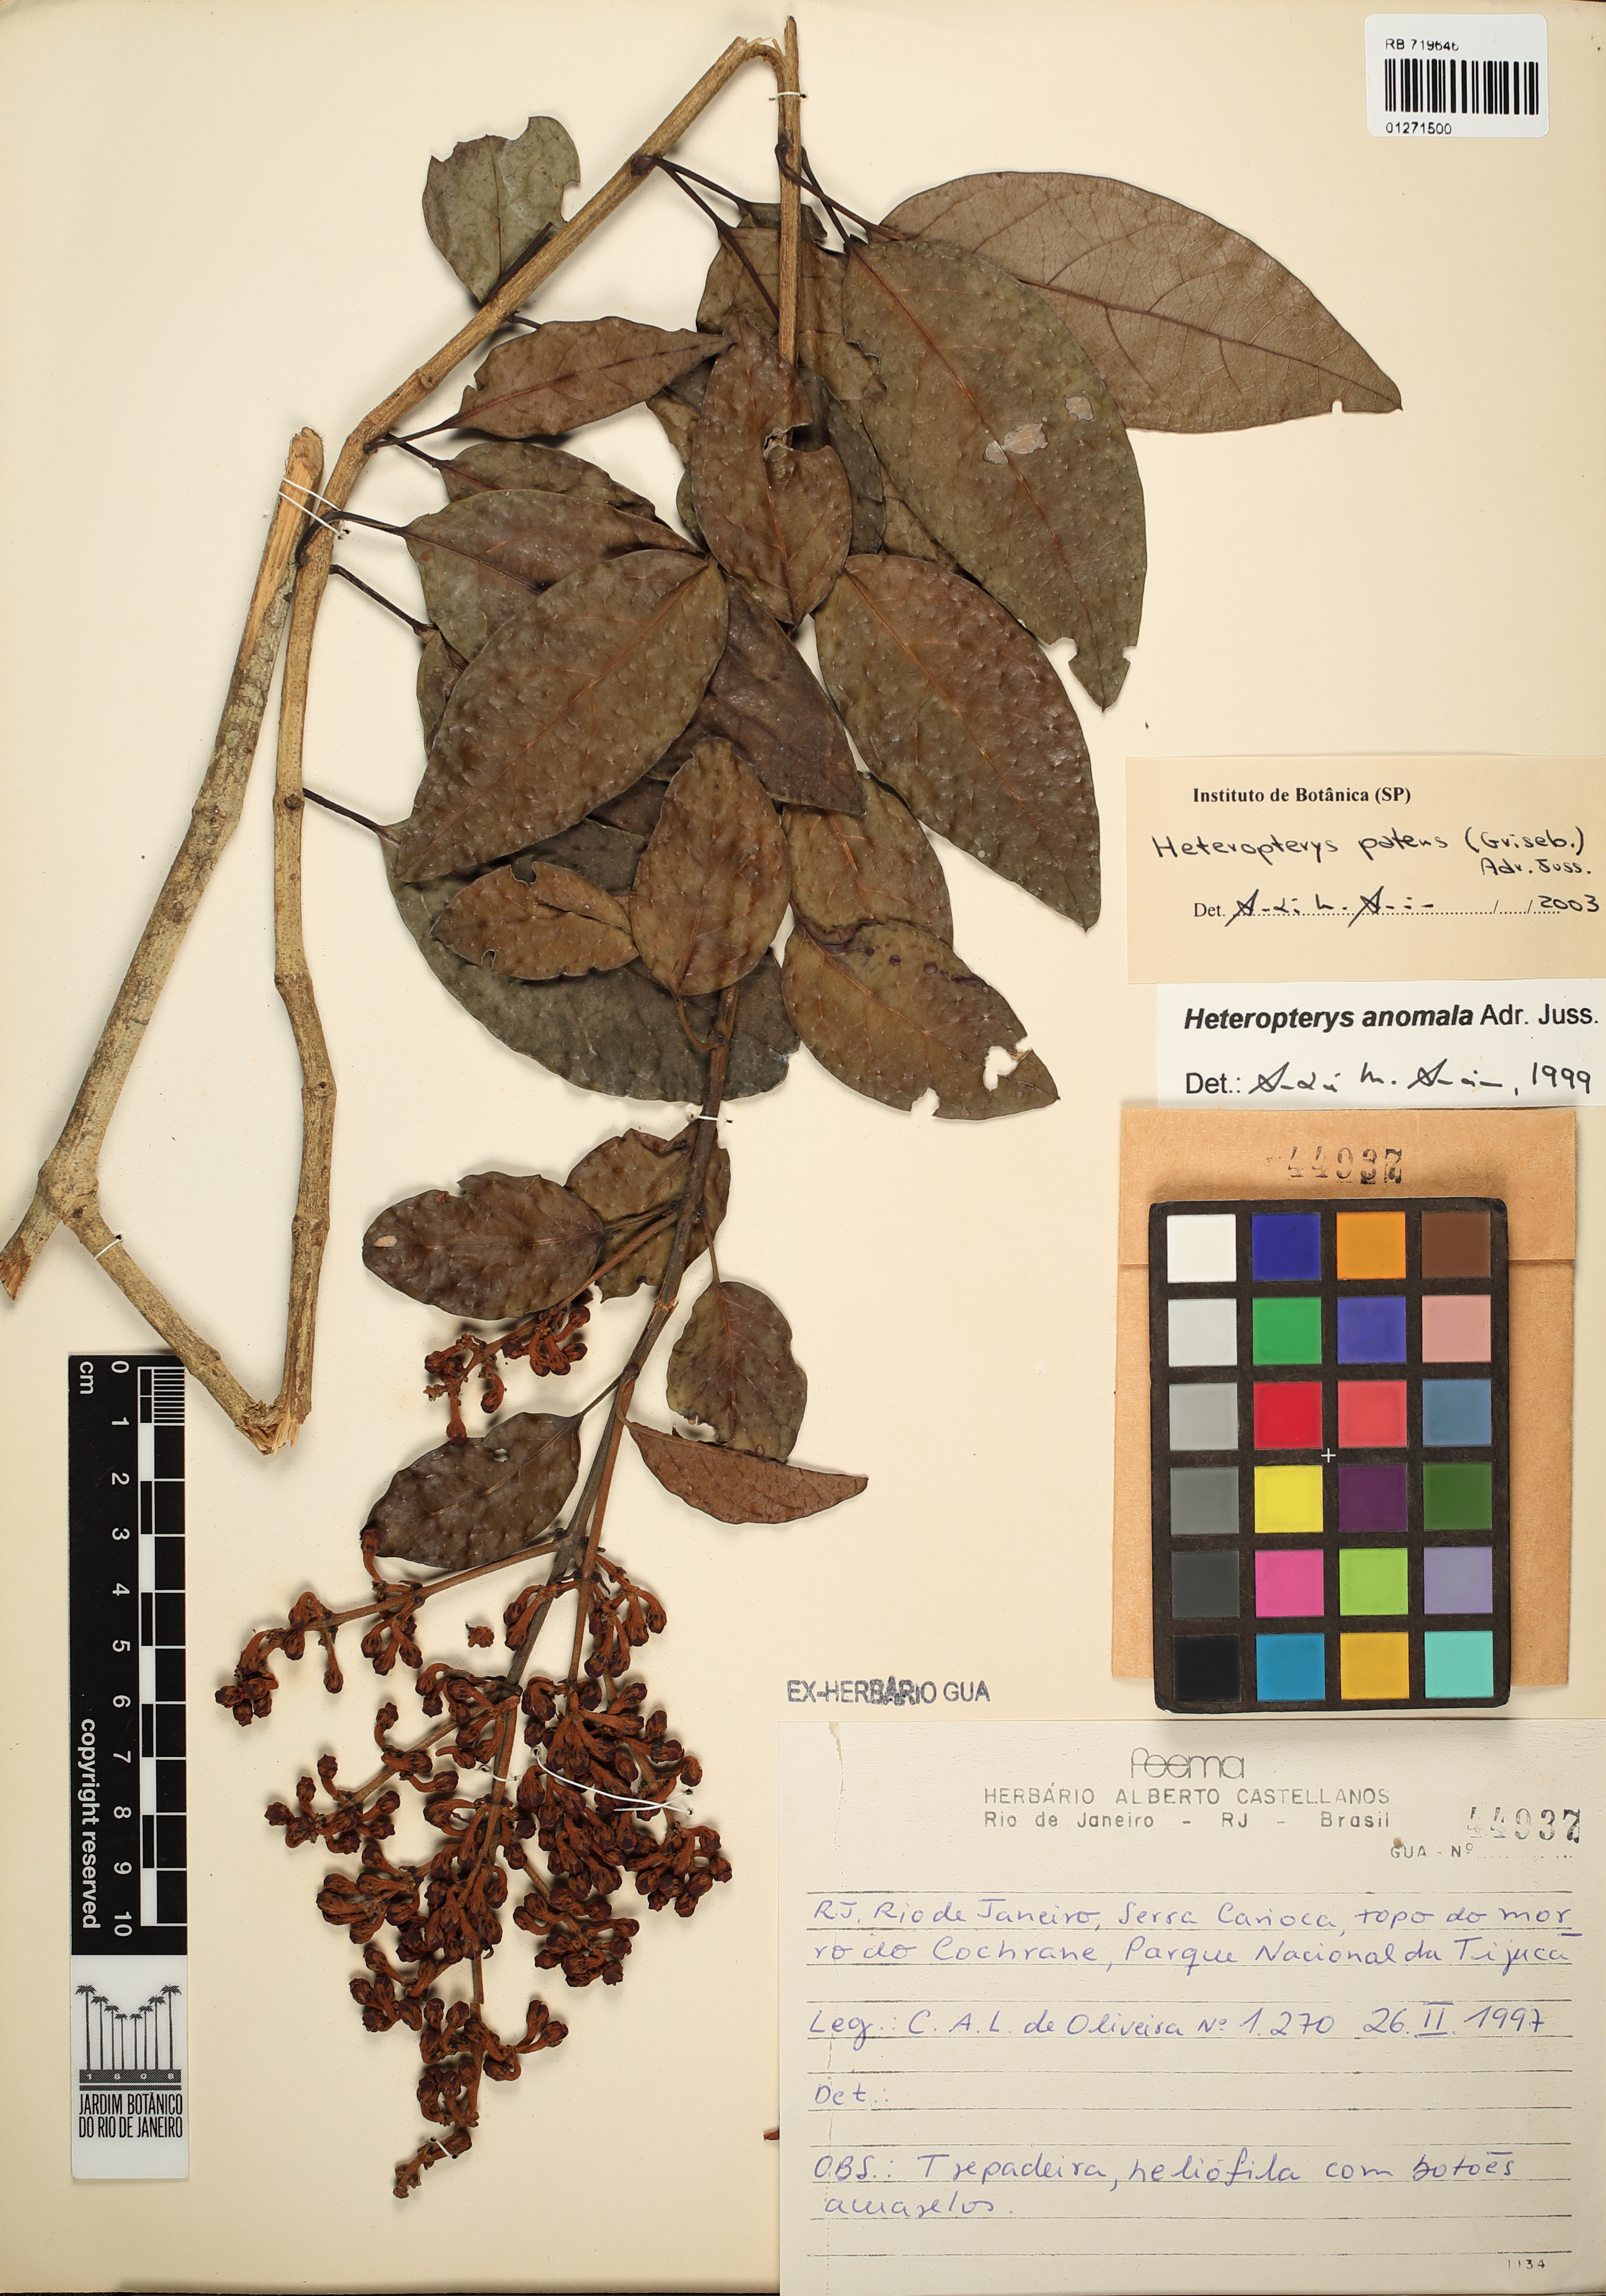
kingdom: Plantae
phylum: Tracheophyta
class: Magnoliopsida
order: Malpighiales
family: Malpighiaceae
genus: Heteropterys
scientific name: Heteropterys patens
